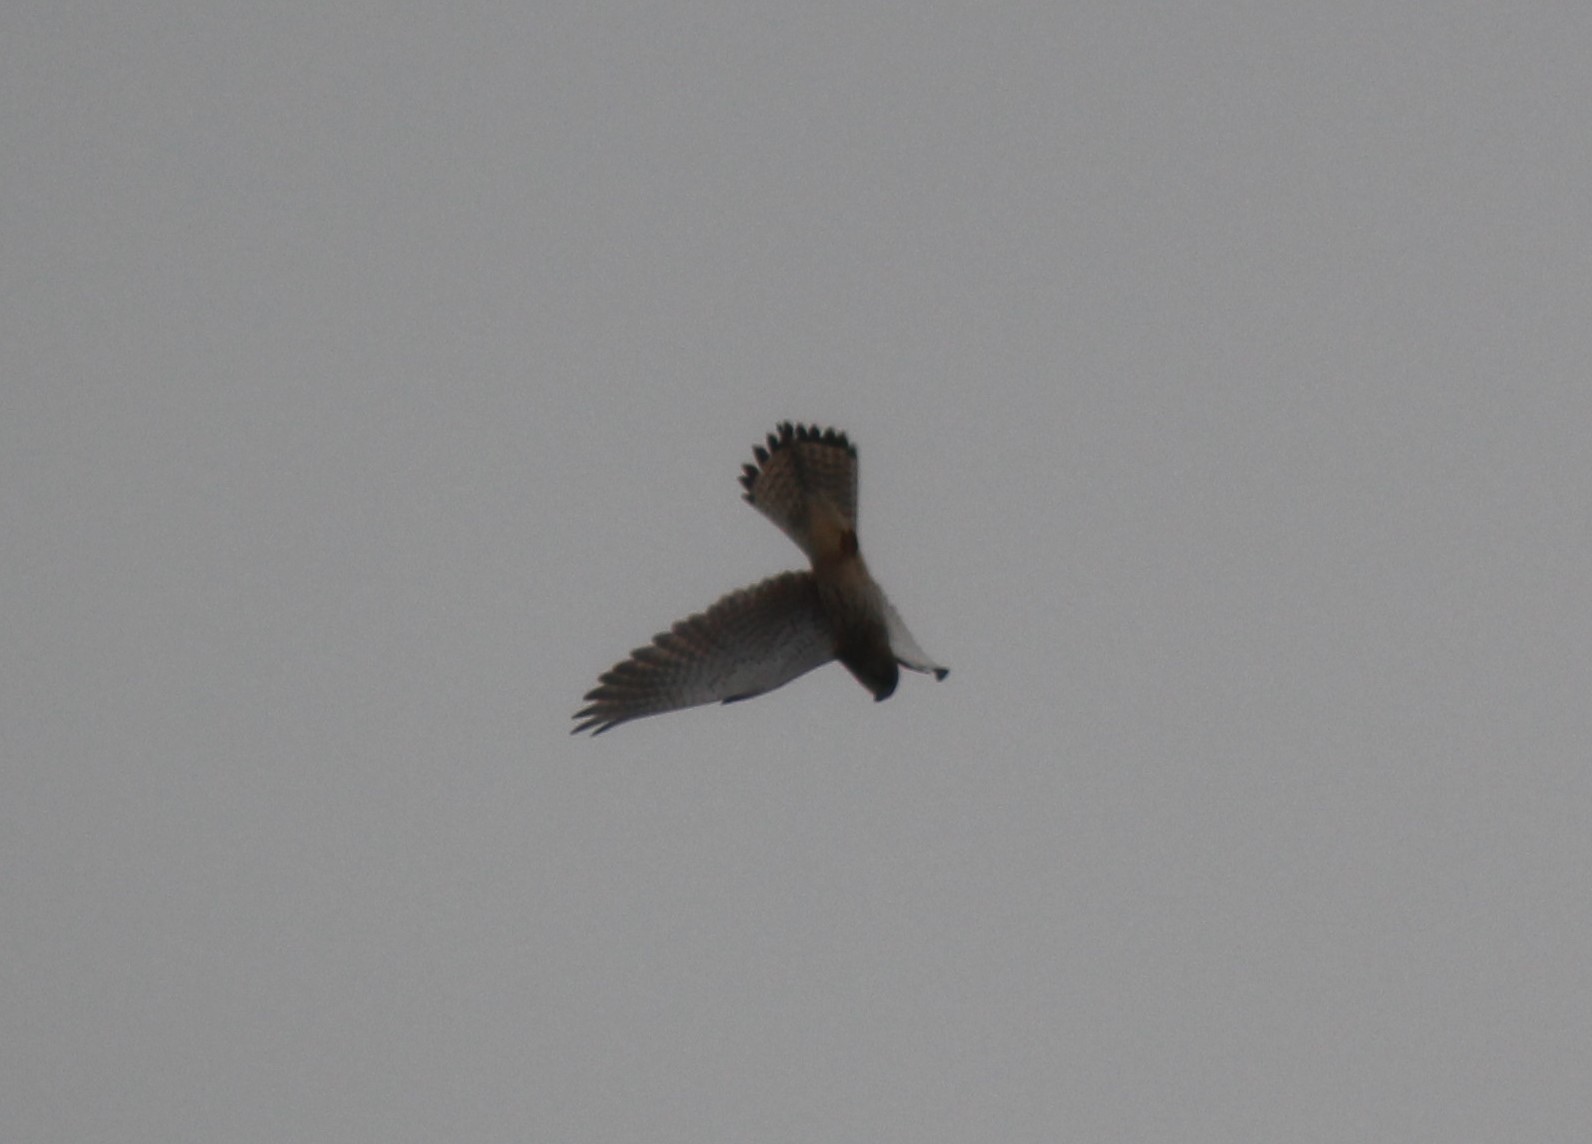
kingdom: Animalia
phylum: Chordata
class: Aves
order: Falconiformes
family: Falconidae
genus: Falco
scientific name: Falco tinnunculus
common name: Tårnfalk
